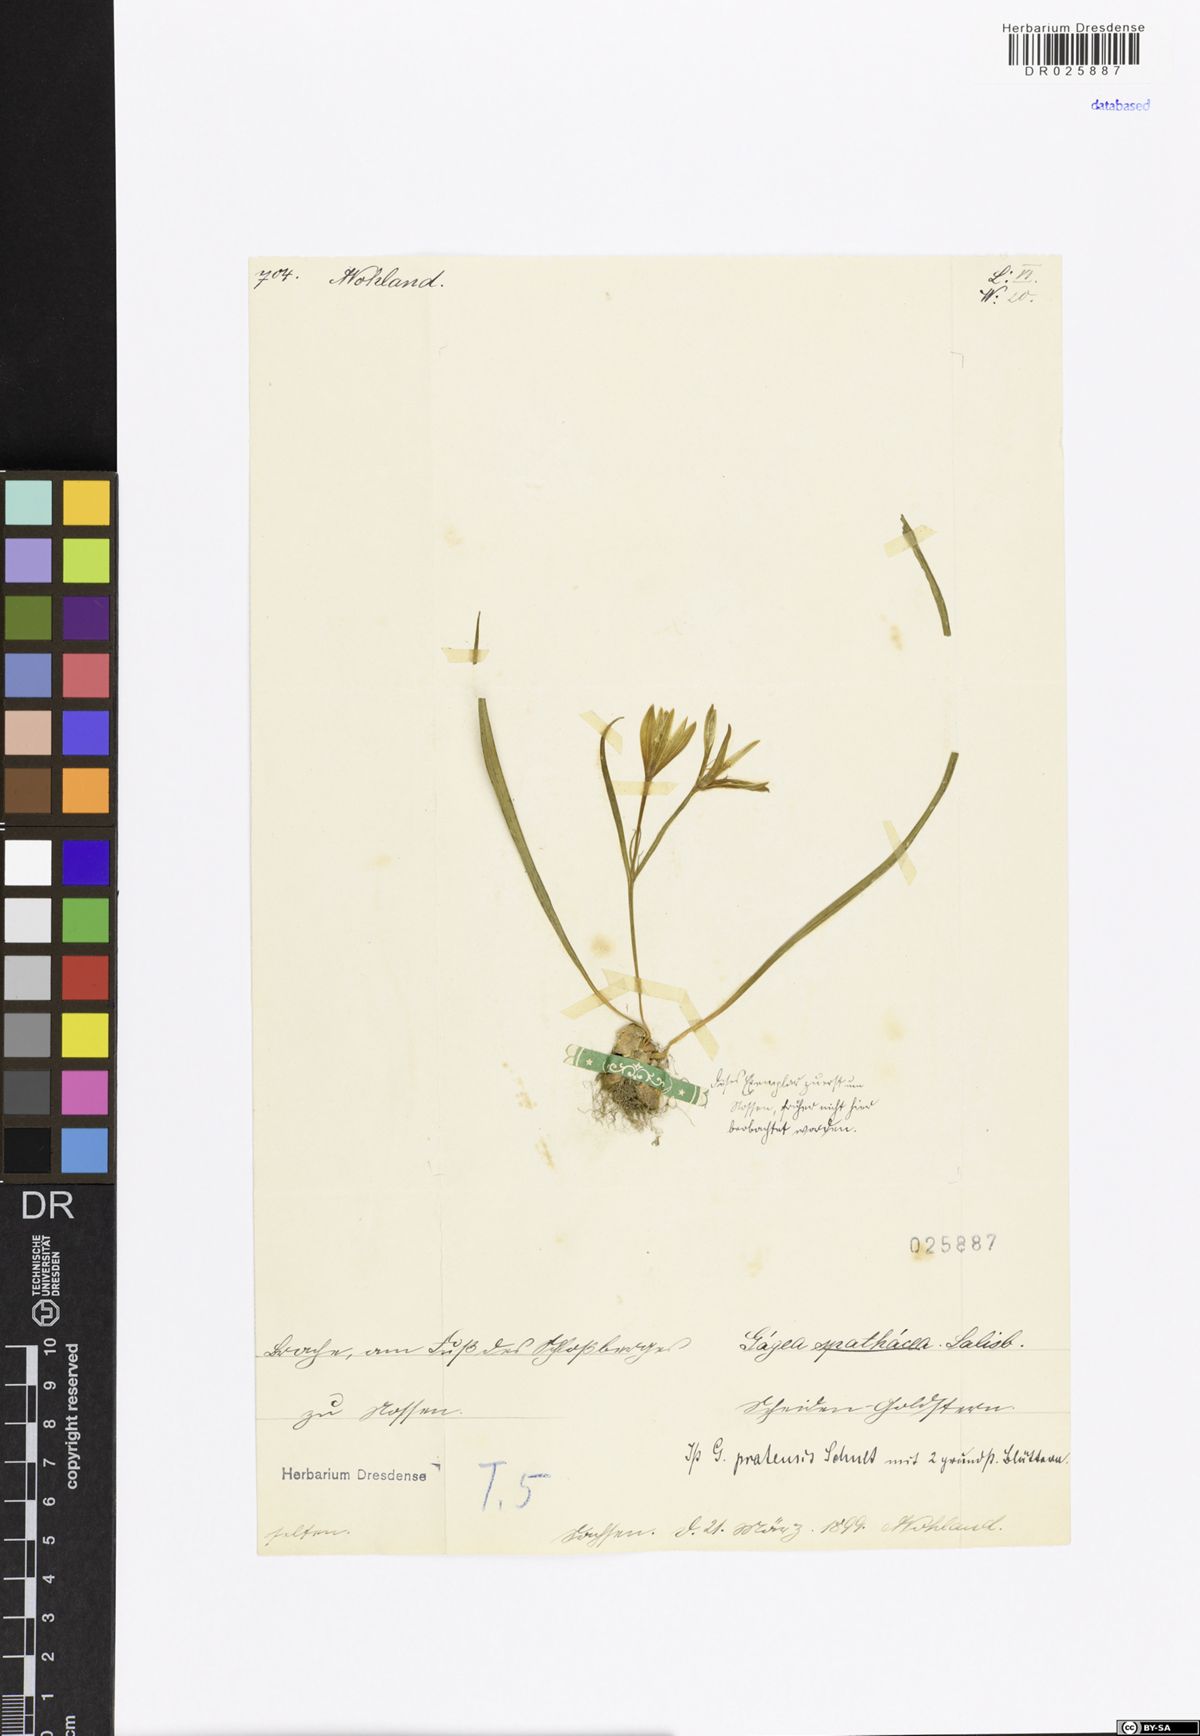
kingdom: Plantae
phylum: Tracheophyta
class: Liliopsida
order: Liliales
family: Liliaceae
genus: Gagea
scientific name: Gagea pratensis
